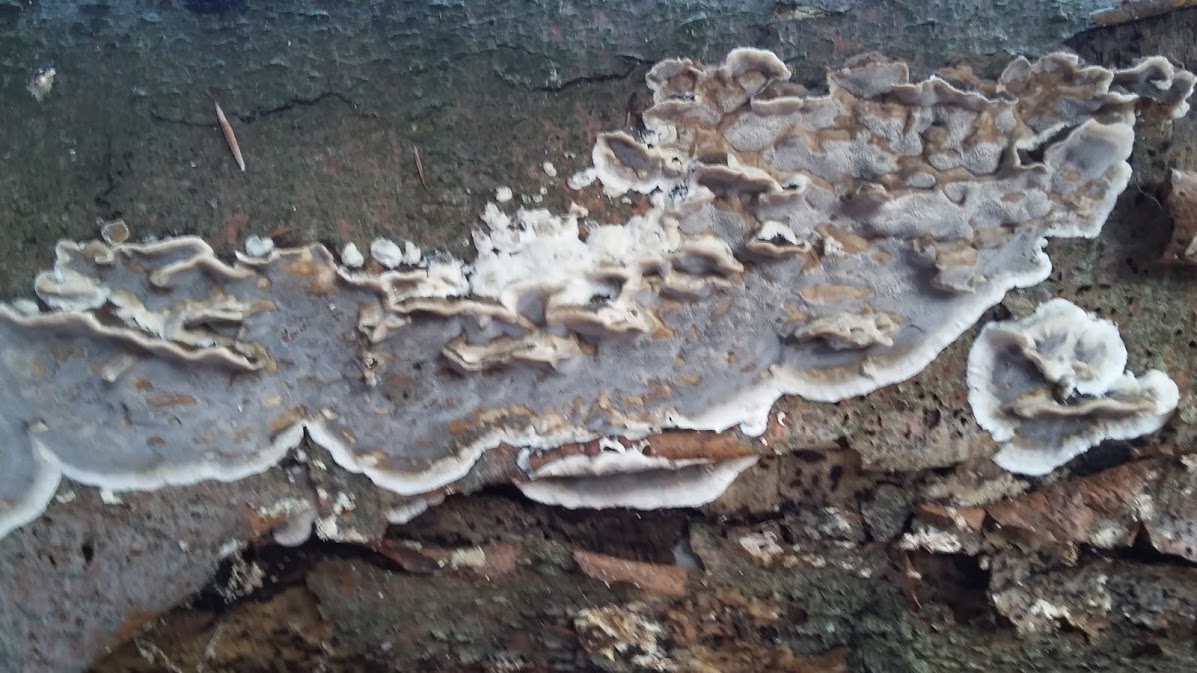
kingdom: Fungi
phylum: Basidiomycota
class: Agaricomycetes
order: Polyporales
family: Phanerochaetaceae
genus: Bjerkandera
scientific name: Bjerkandera adusta
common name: sveden sodporesvamp
